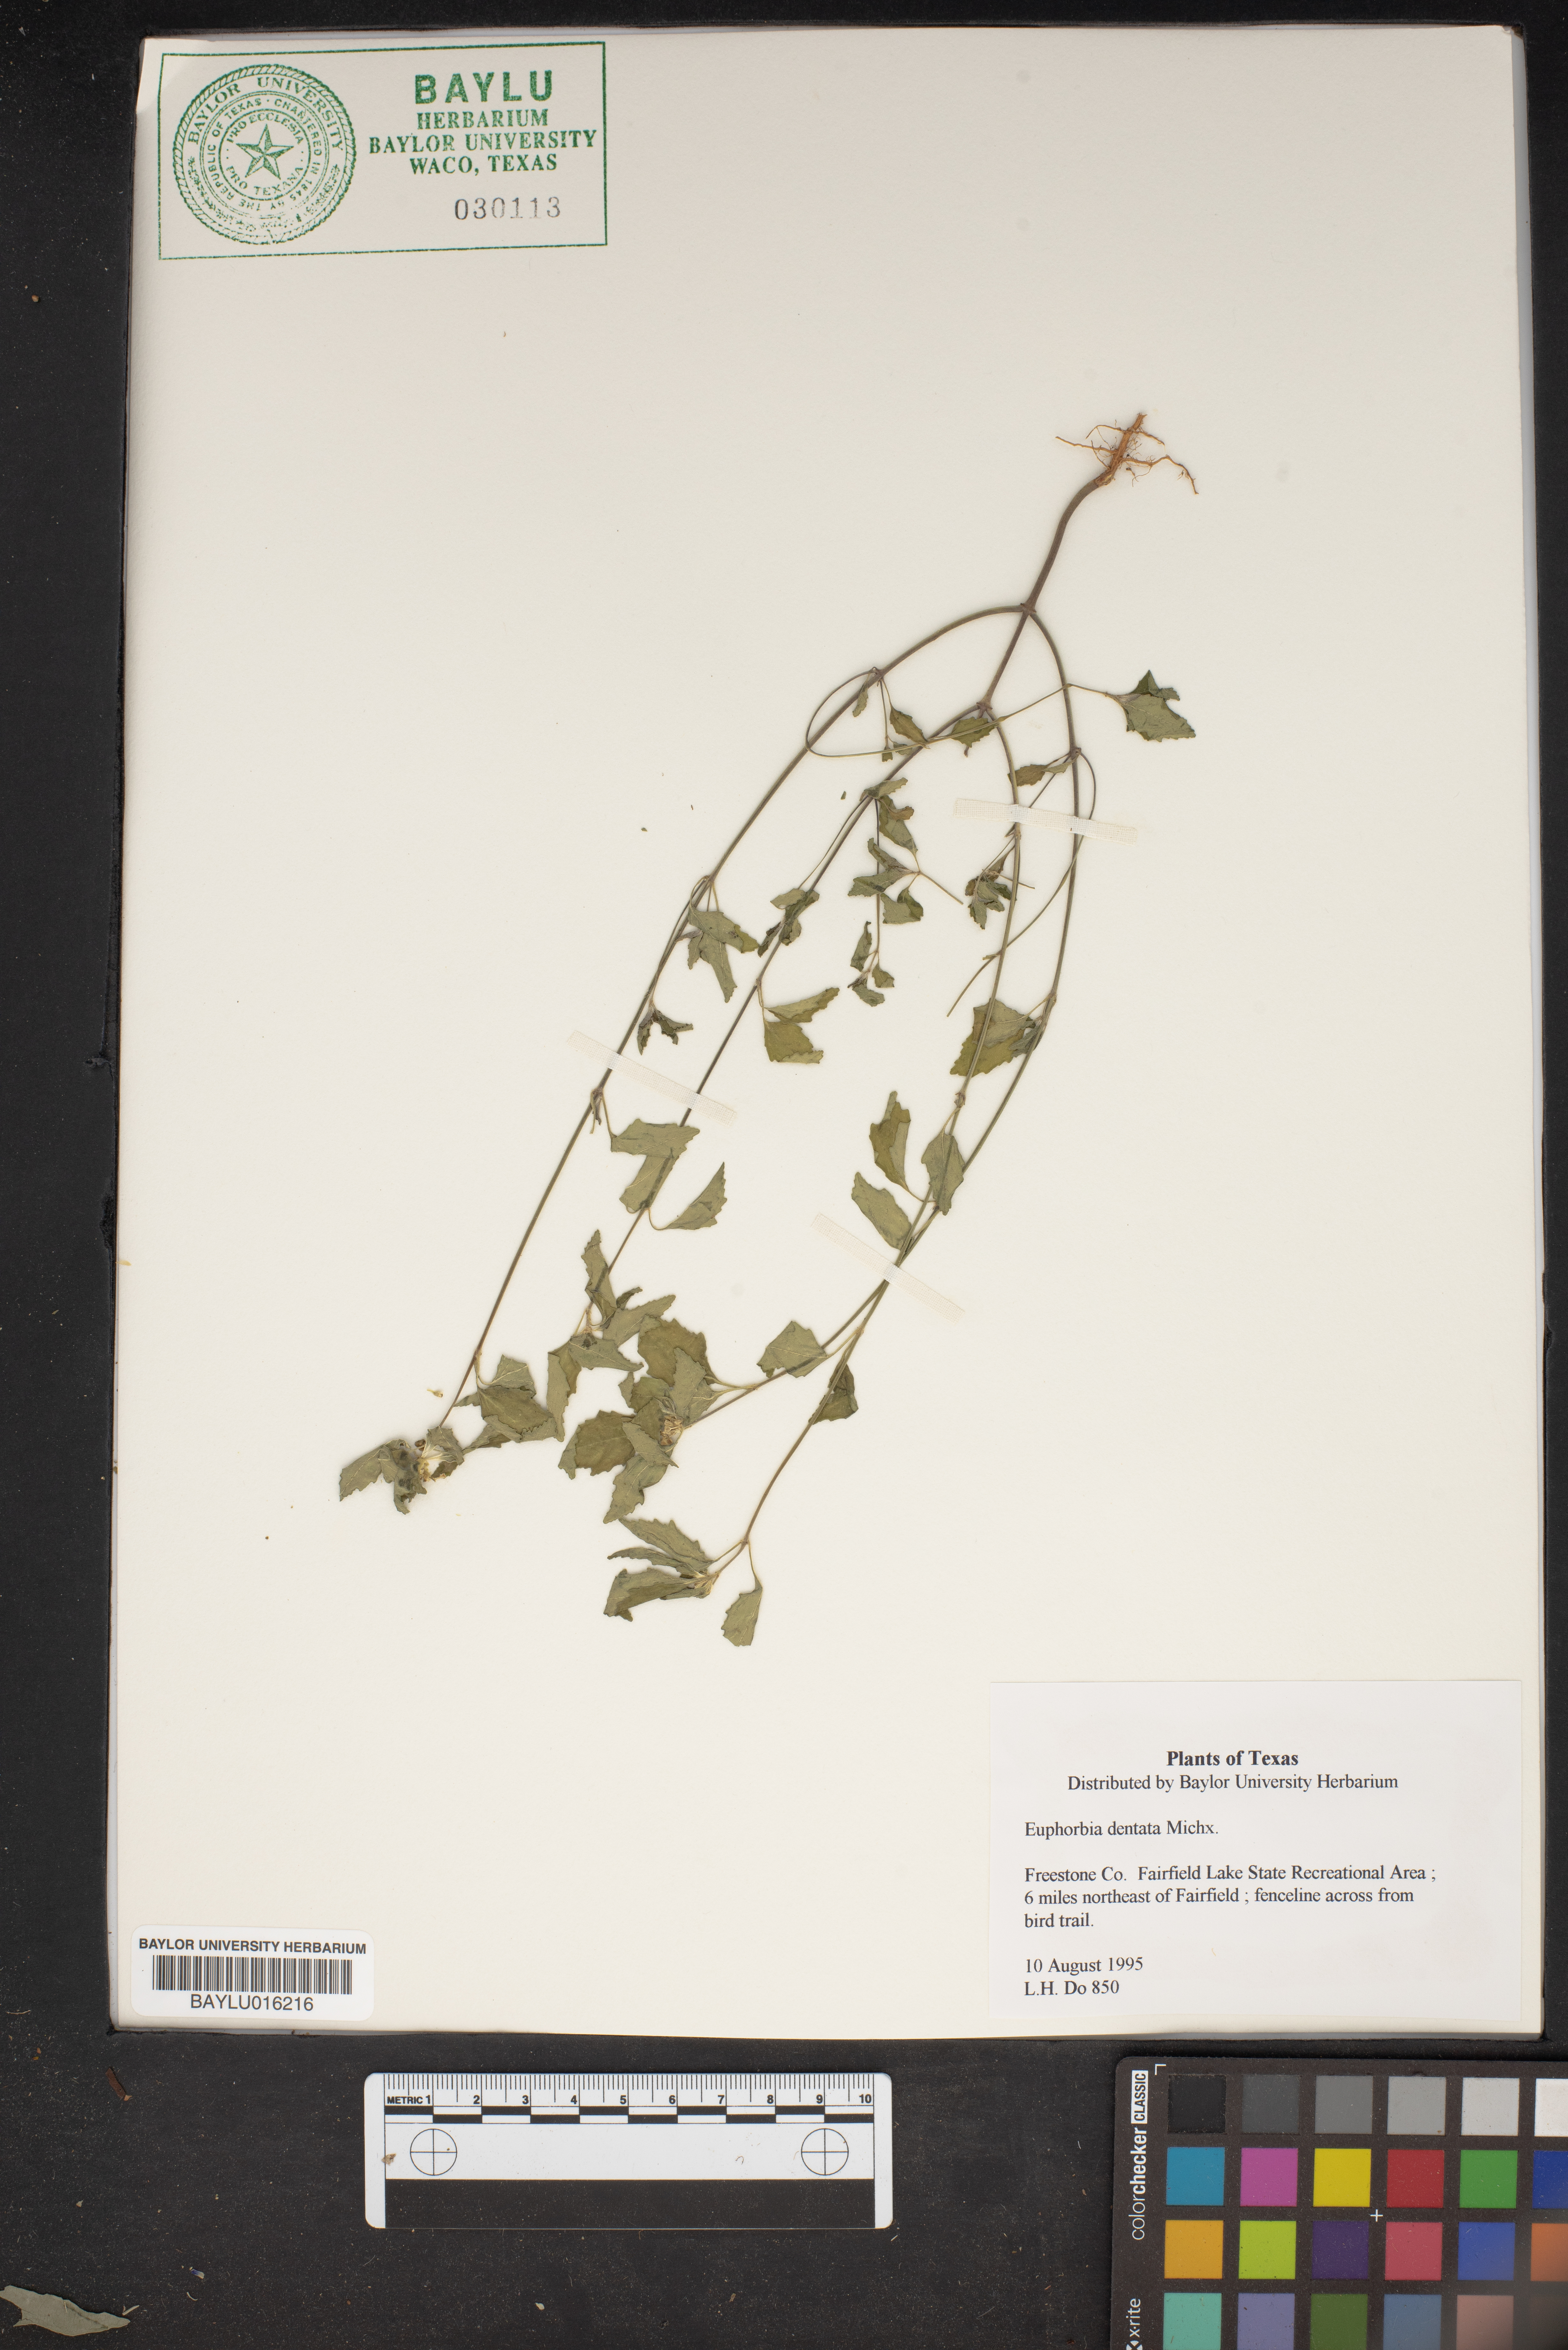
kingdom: Plantae
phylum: Tracheophyta
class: Magnoliopsida
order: Malpighiales
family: Euphorbiaceae
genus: Euphorbia
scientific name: Euphorbia dentata
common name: Dentate spurge
